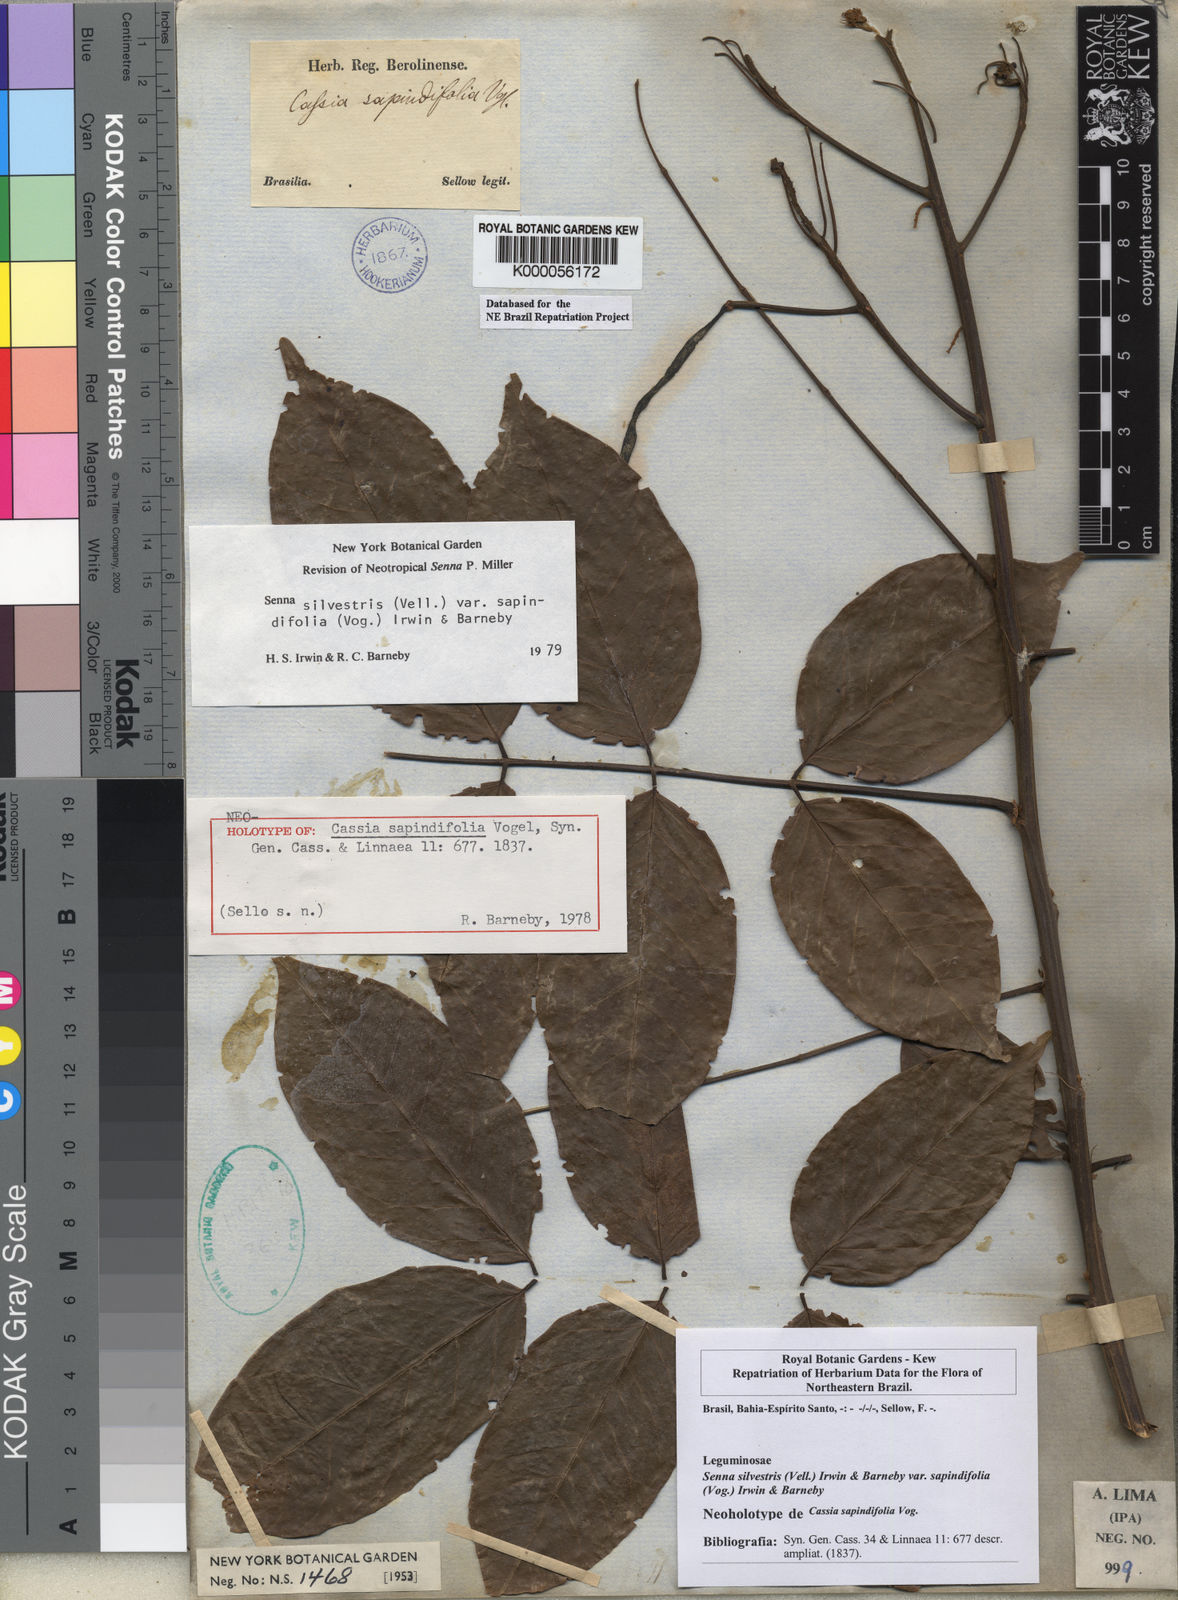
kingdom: Plantae
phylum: Tracheophyta
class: Magnoliopsida
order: Fabales
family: Fabaceae
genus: Senna
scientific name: Senna silvestris
